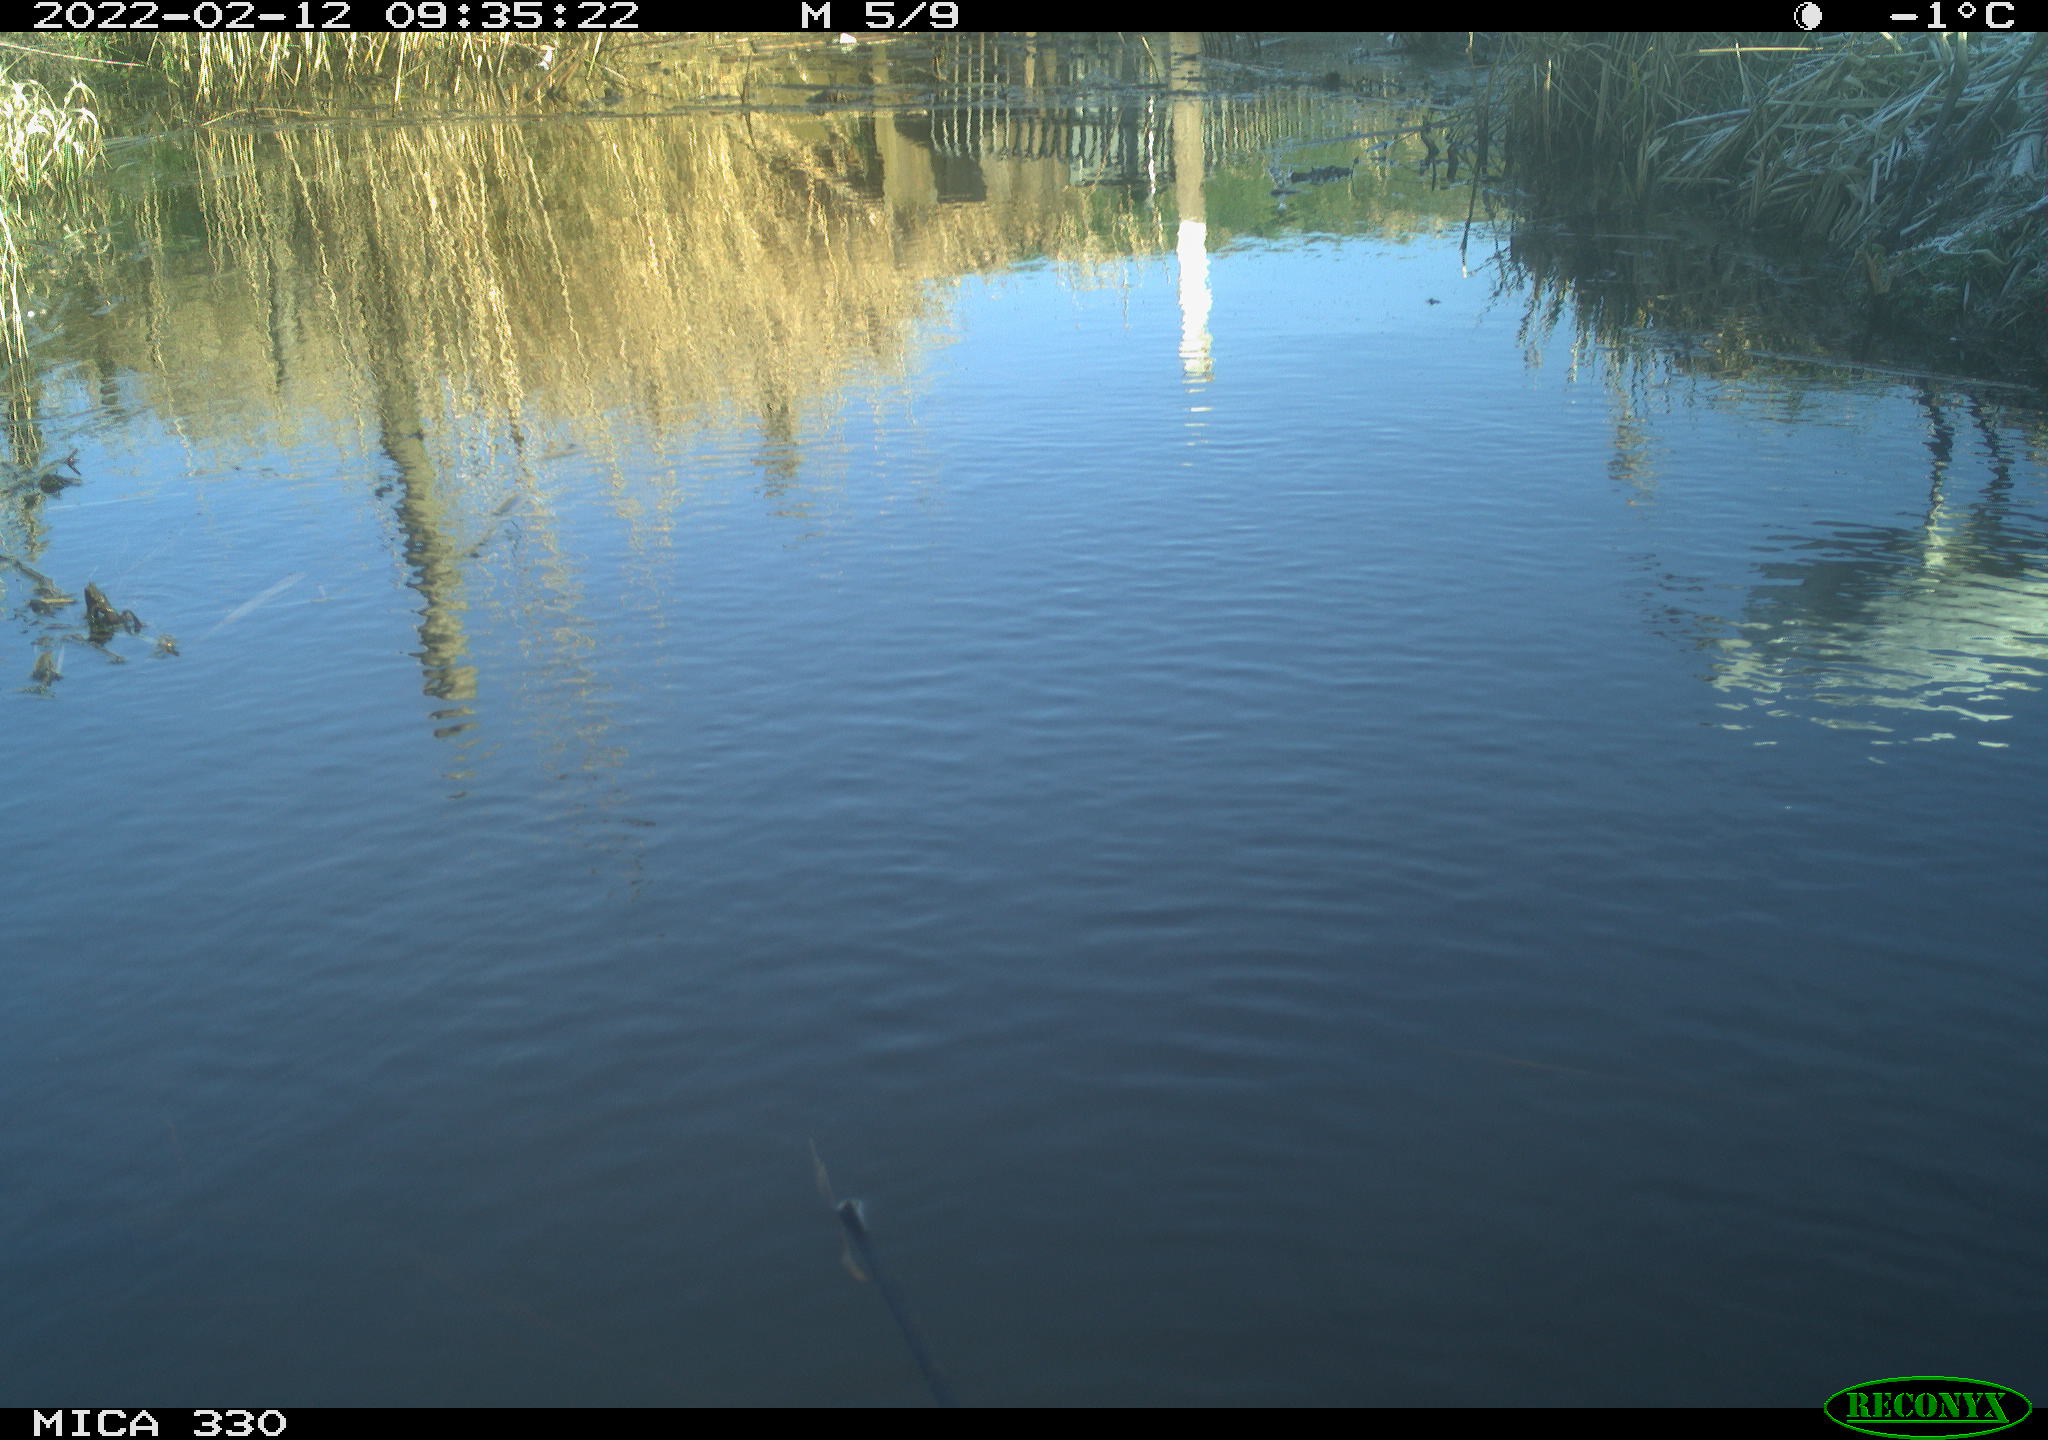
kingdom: Animalia
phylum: Chordata
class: Aves
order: Pelecaniformes
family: Ardeidae
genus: Ardea
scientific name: Ardea alba
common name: Great egret
